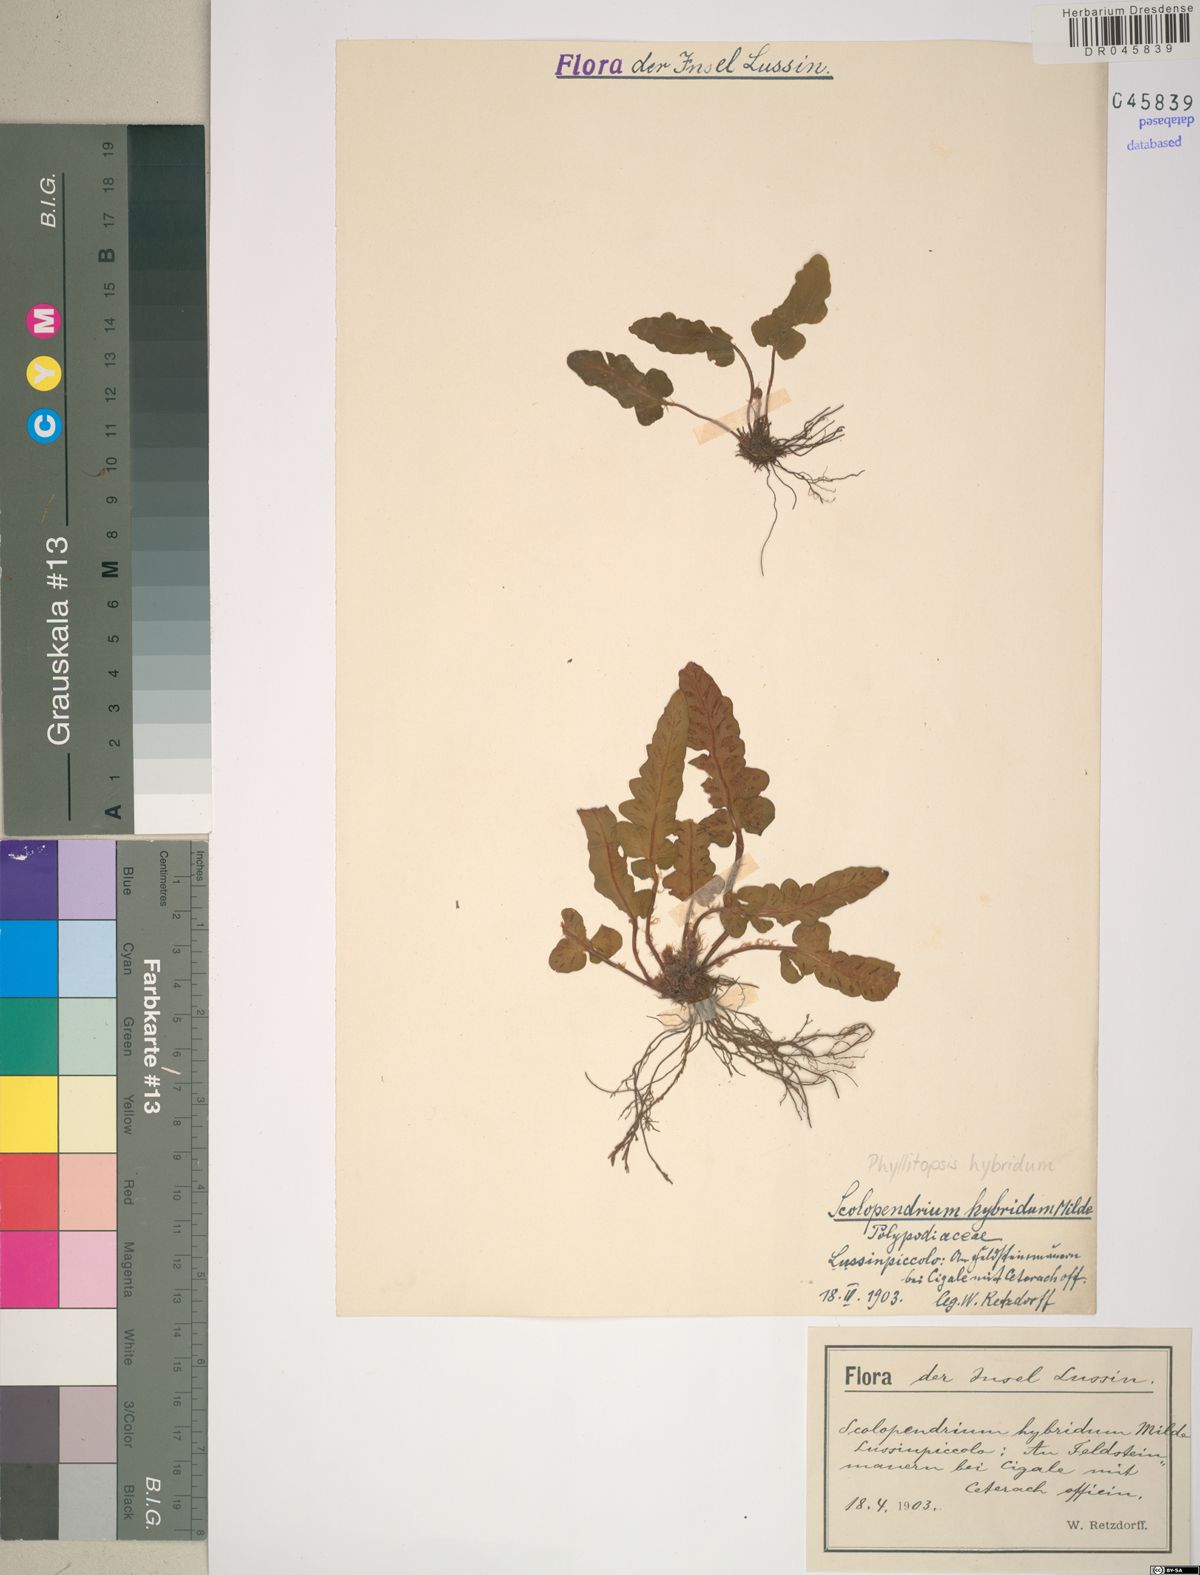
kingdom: Plantae
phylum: Tracheophyta
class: Polypodiopsida
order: Polypodiales
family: Aspleniaceae
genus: Asplenium
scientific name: Asplenium hybridum
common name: Dalmatian spleenwort
